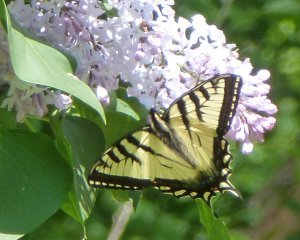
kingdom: Animalia
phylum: Arthropoda
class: Insecta
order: Lepidoptera
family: Papilionidae
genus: Pterourus
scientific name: Pterourus canadensis
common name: Canadian Tiger Swallowtail
